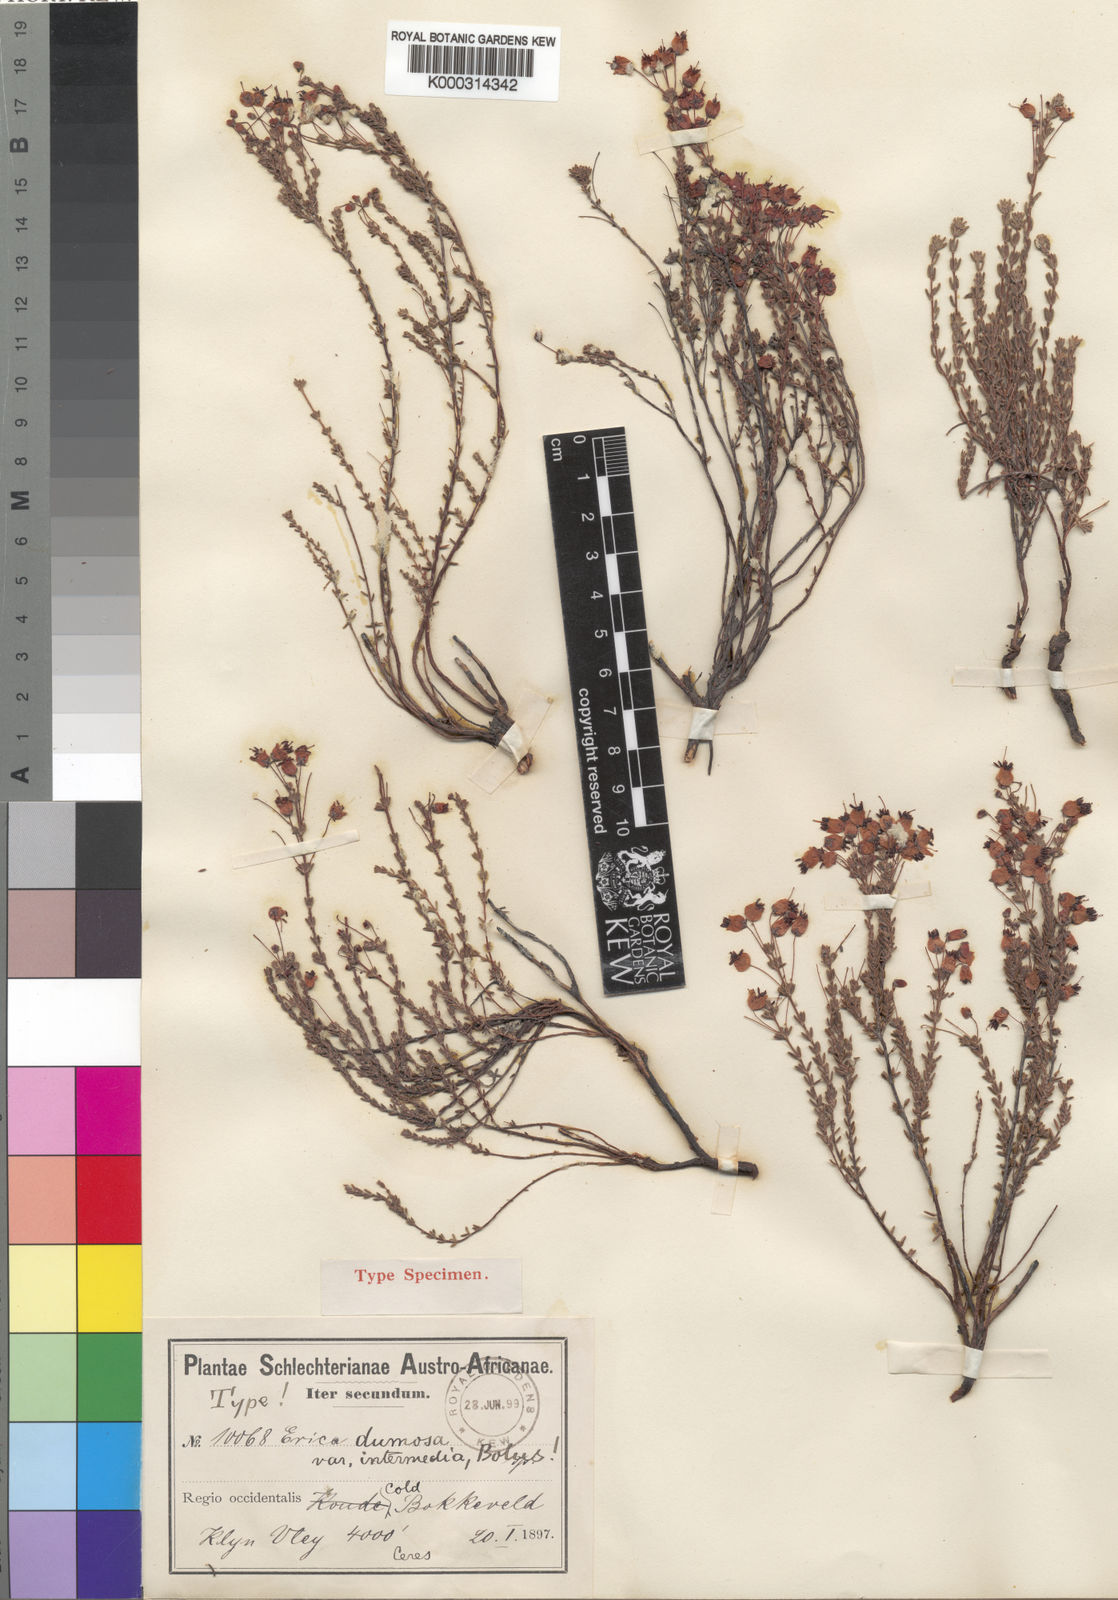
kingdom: Plantae
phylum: Tracheophyta
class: Magnoliopsida
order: Ericales
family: Ericaceae
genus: Erica
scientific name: Erica
